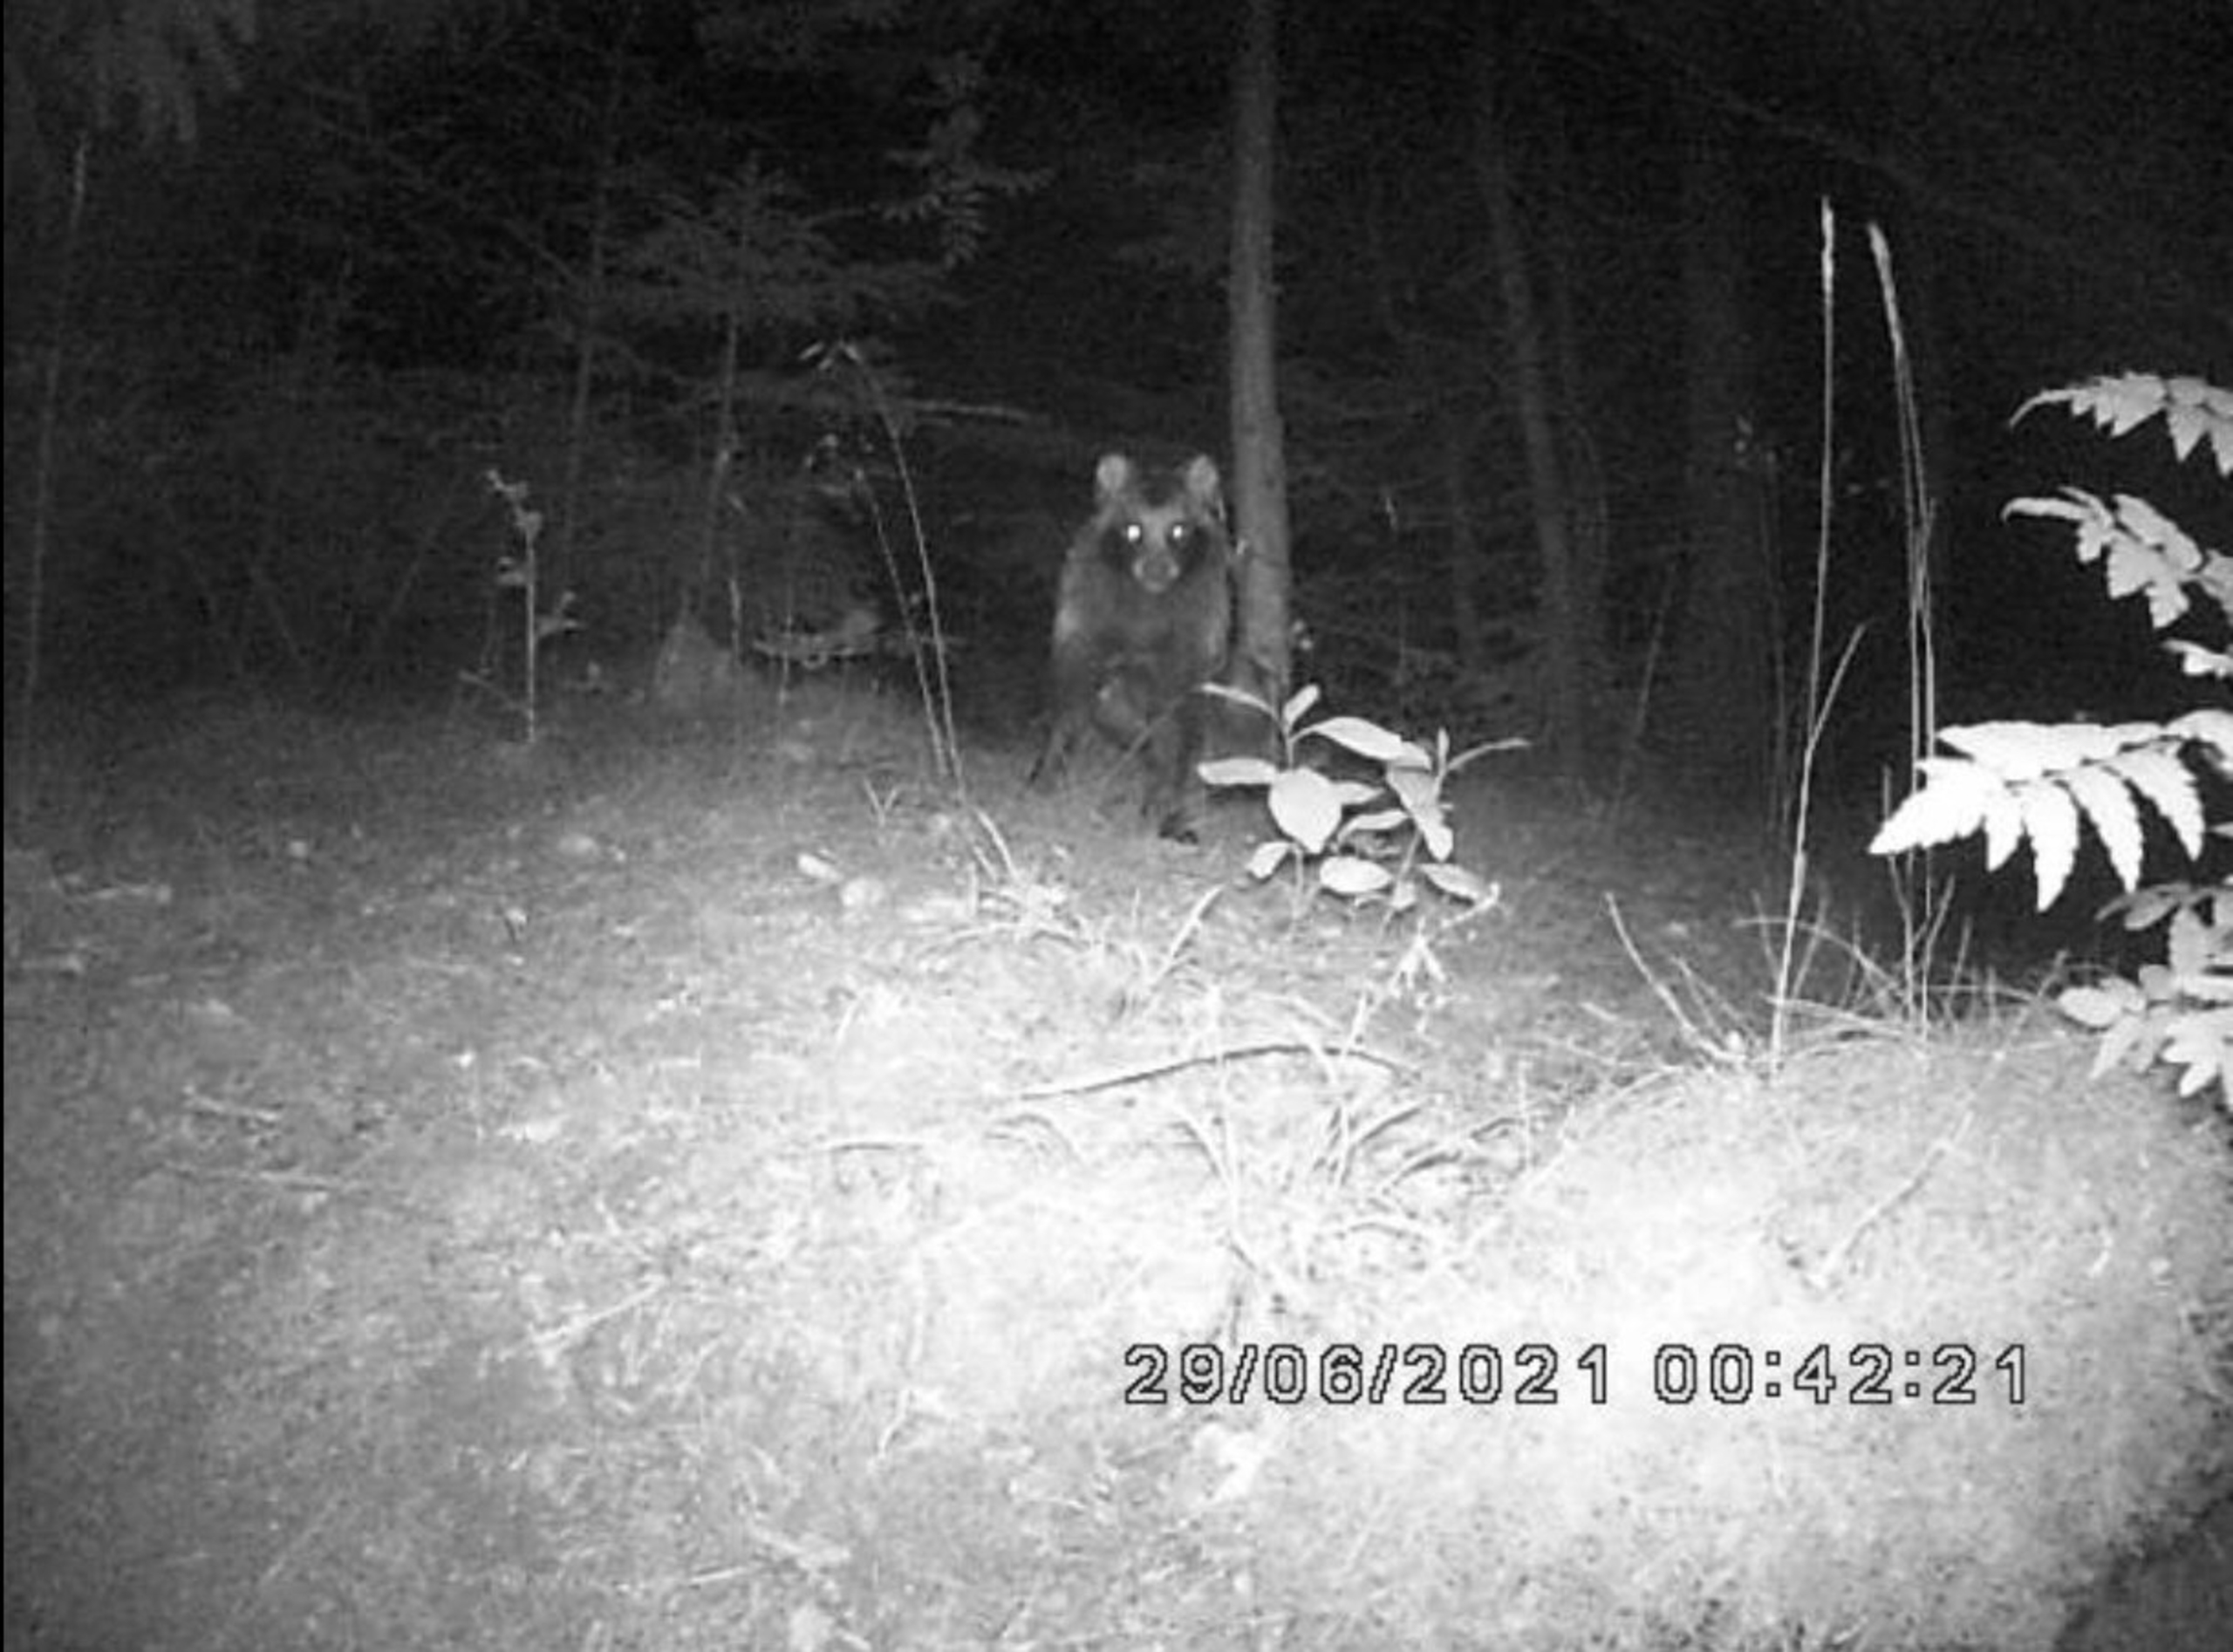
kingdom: Animalia
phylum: Chordata
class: Mammalia
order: Carnivora
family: Canidae
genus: Nyctereutes
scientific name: Nyctereutes procyonoides
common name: Mårhund
